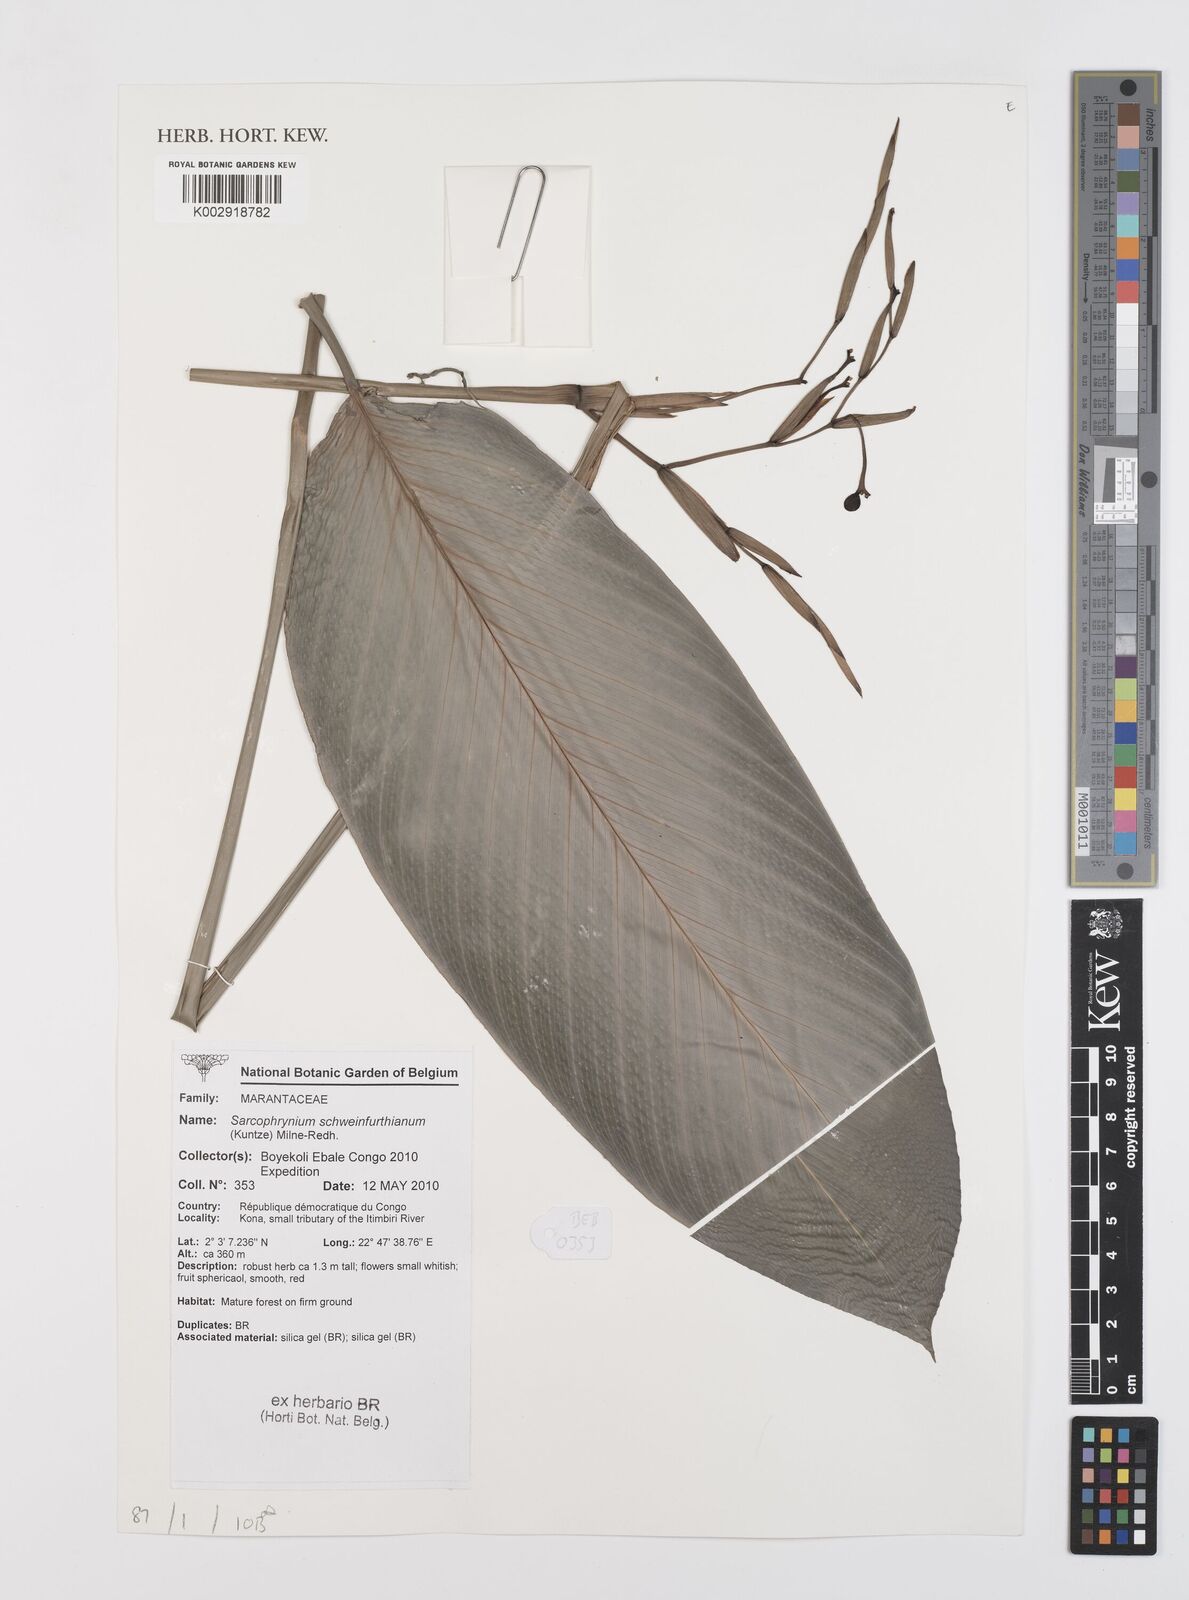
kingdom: Plantae
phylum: Tracheophyta
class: Liliopsida
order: Zingiberales
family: Marantaceae
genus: Sarcophrynium
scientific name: Sarcophrynium schweinfurthianum
